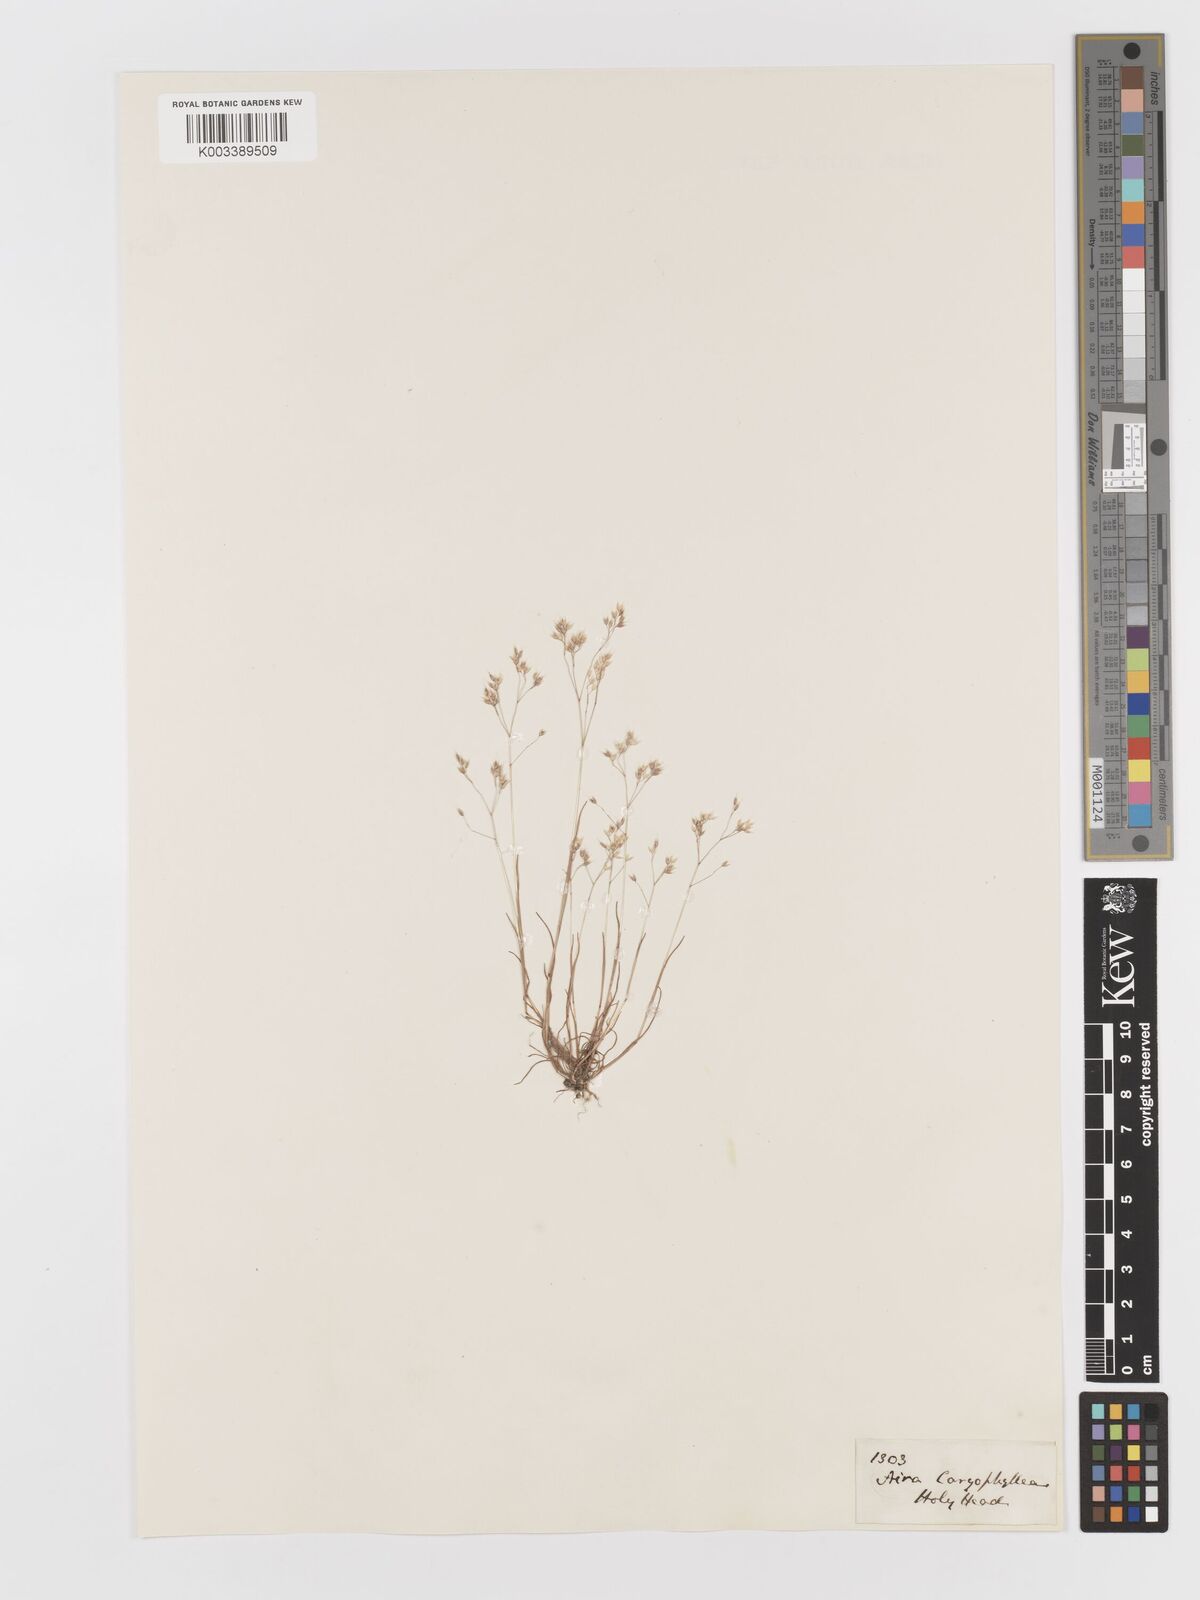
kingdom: Plantae
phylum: Tracheophyta
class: Liliopsida
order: Poales
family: Poaceae
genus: Aira
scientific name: Aira caryophyllea
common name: Silver hairgrass
